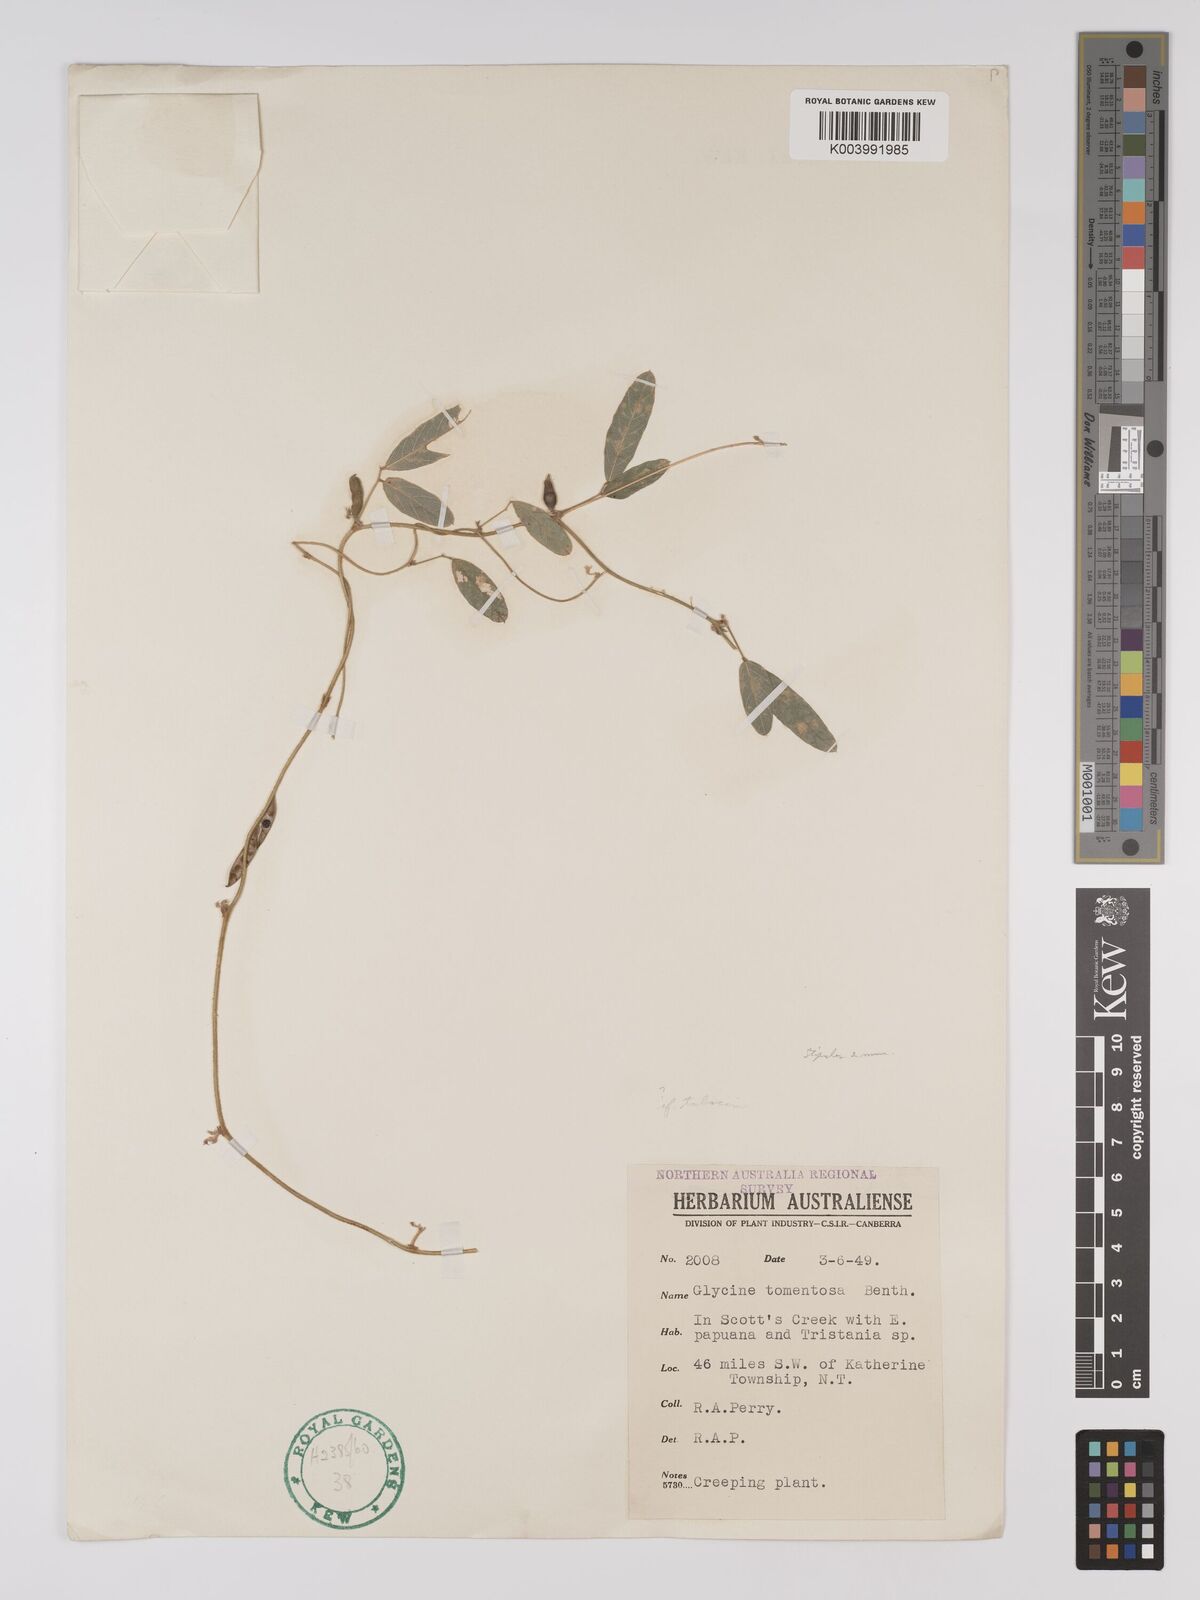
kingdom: Plantae
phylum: Tracheophyta
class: Magnoliopsida
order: Fabales
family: Fabaceae
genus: Glycine
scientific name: Glycine
